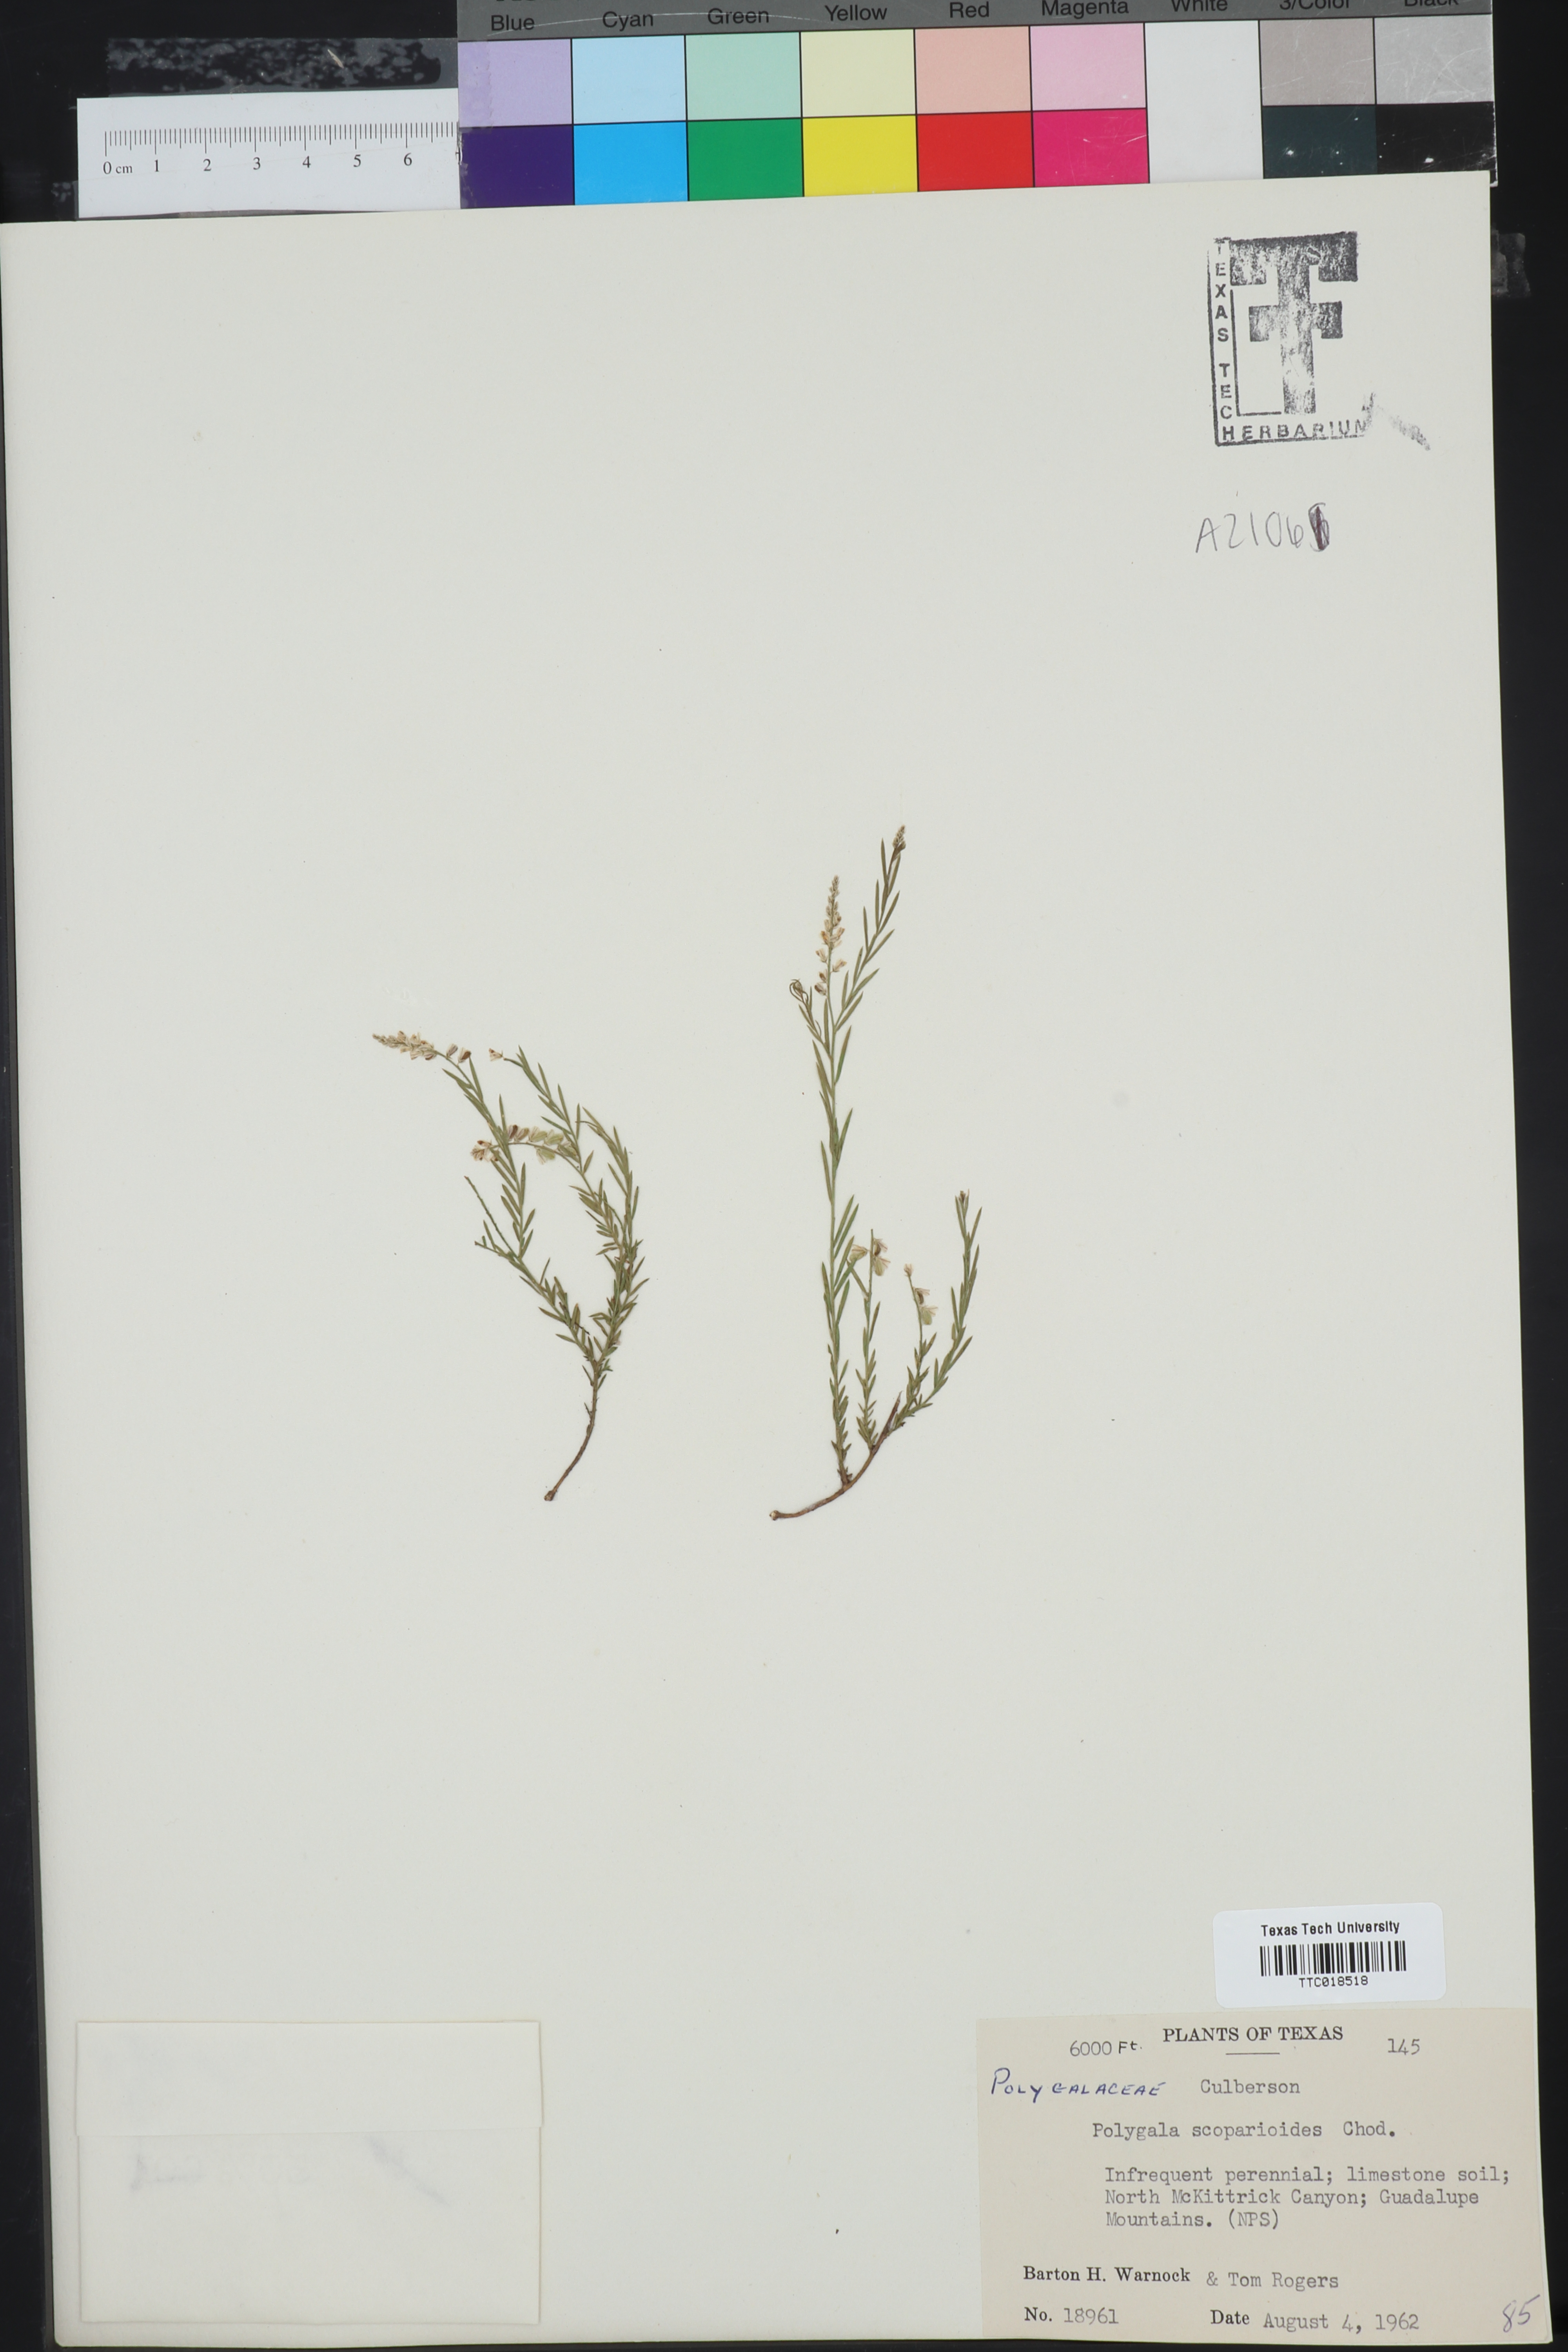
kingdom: Plantae
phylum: Tracheophyta
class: Magnoliopsida
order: Fabales
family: Polygalaceae
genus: Polygala
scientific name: Polygala scoparioides
